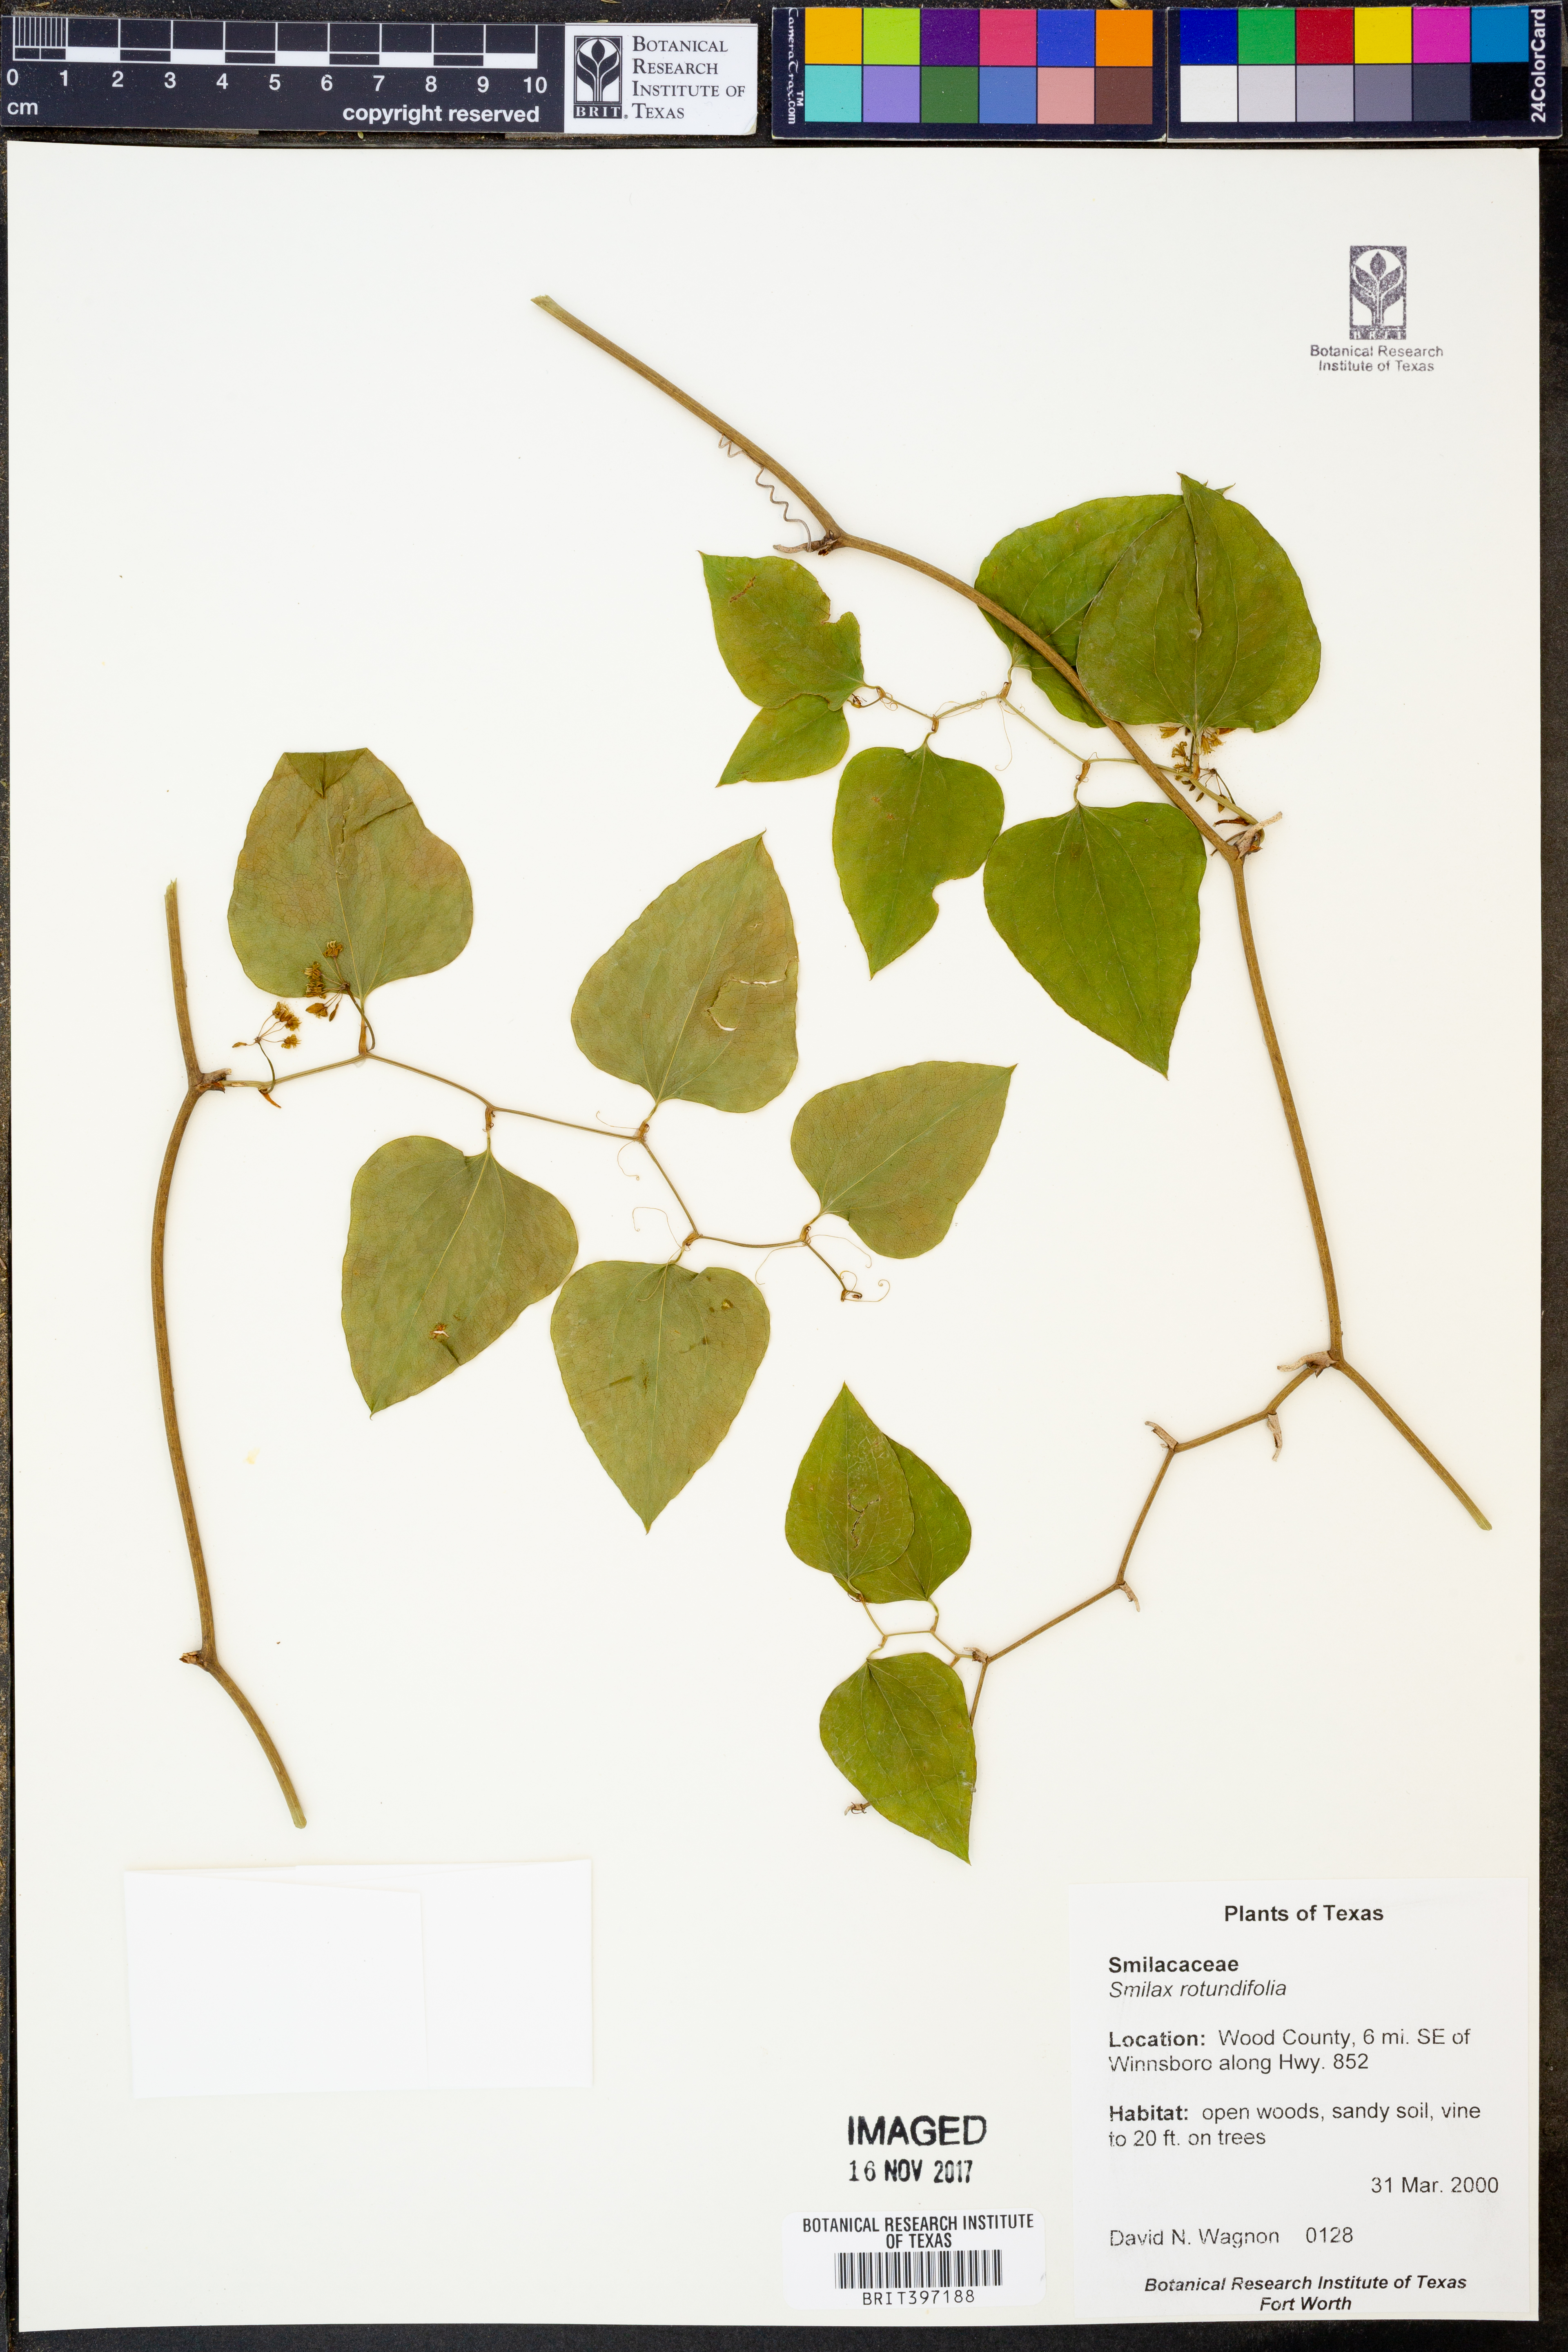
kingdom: Plantae
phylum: Tracheophyta
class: Liliopsida
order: Liliales
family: Smilacaceae
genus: Smilax
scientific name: Smilax rotundifolia
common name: Bullbriar
